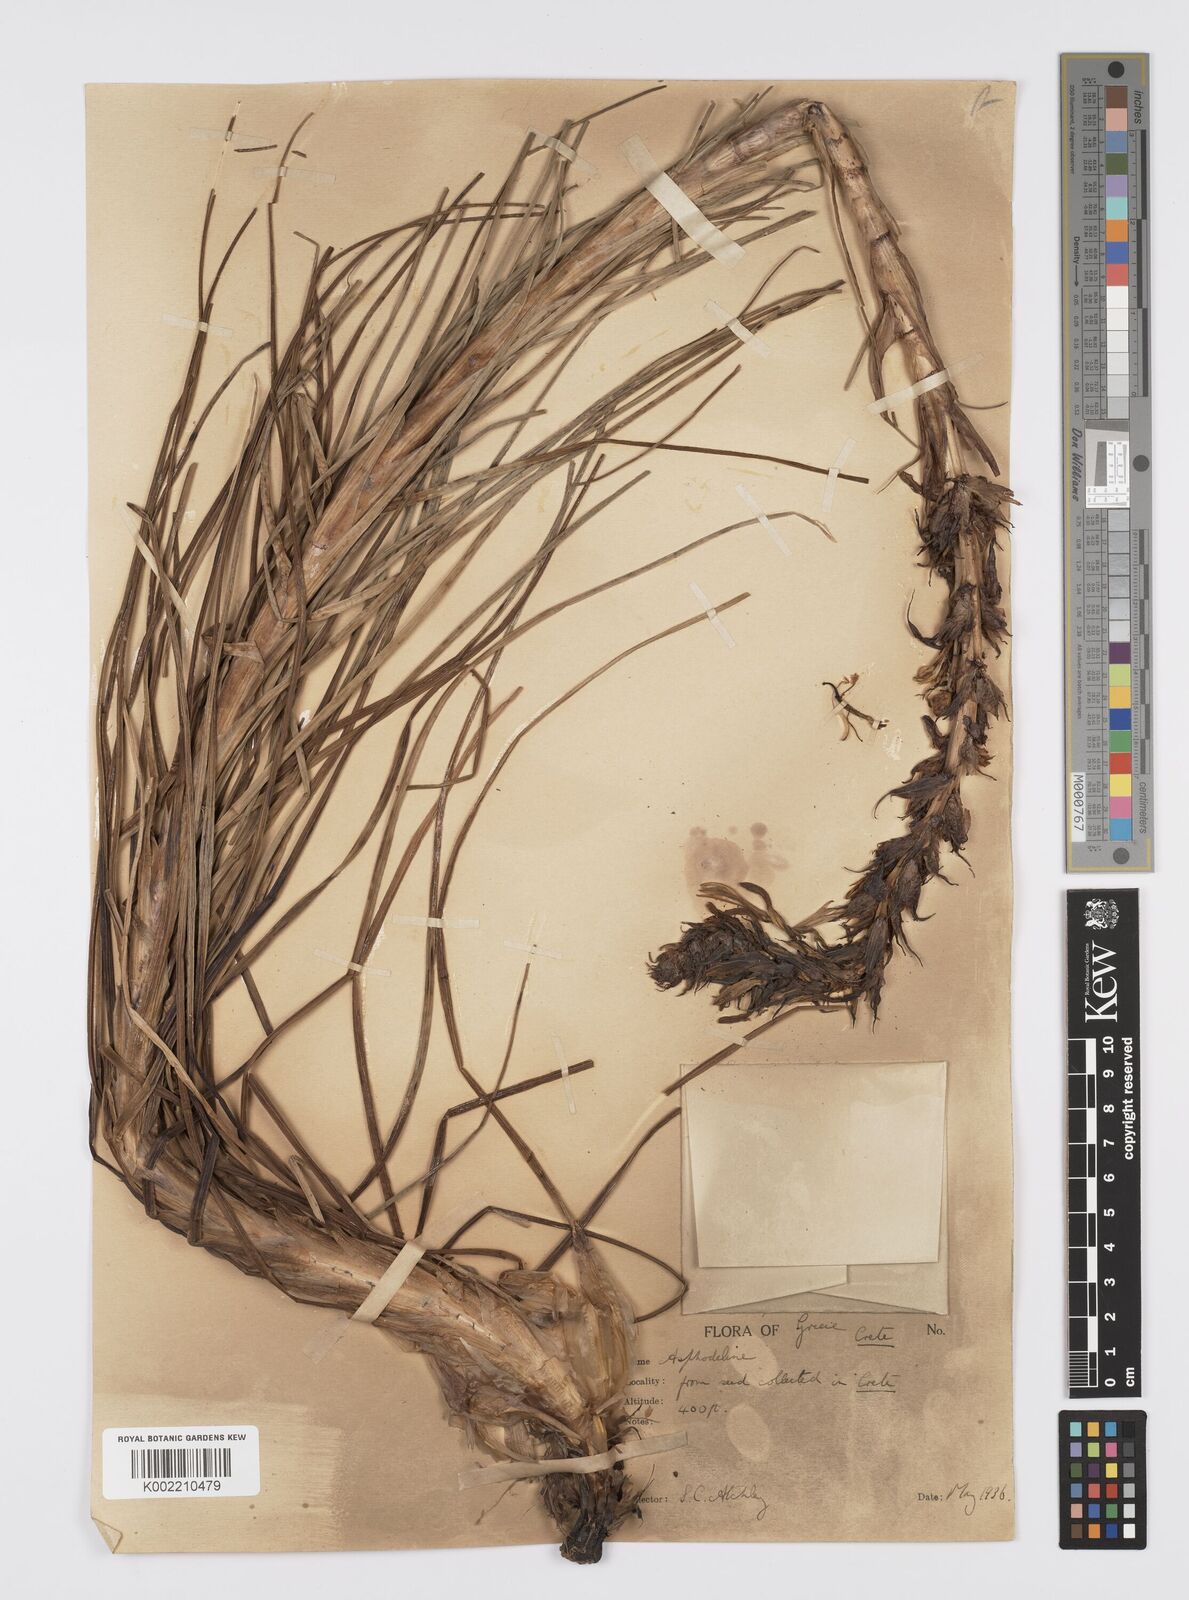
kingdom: Plantae
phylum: Tracheophyta
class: Liliopsida
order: Asparagales
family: Asphodelaceae
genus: Asphodeline
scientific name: Asphodeline lutea
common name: Yellow asphodel
